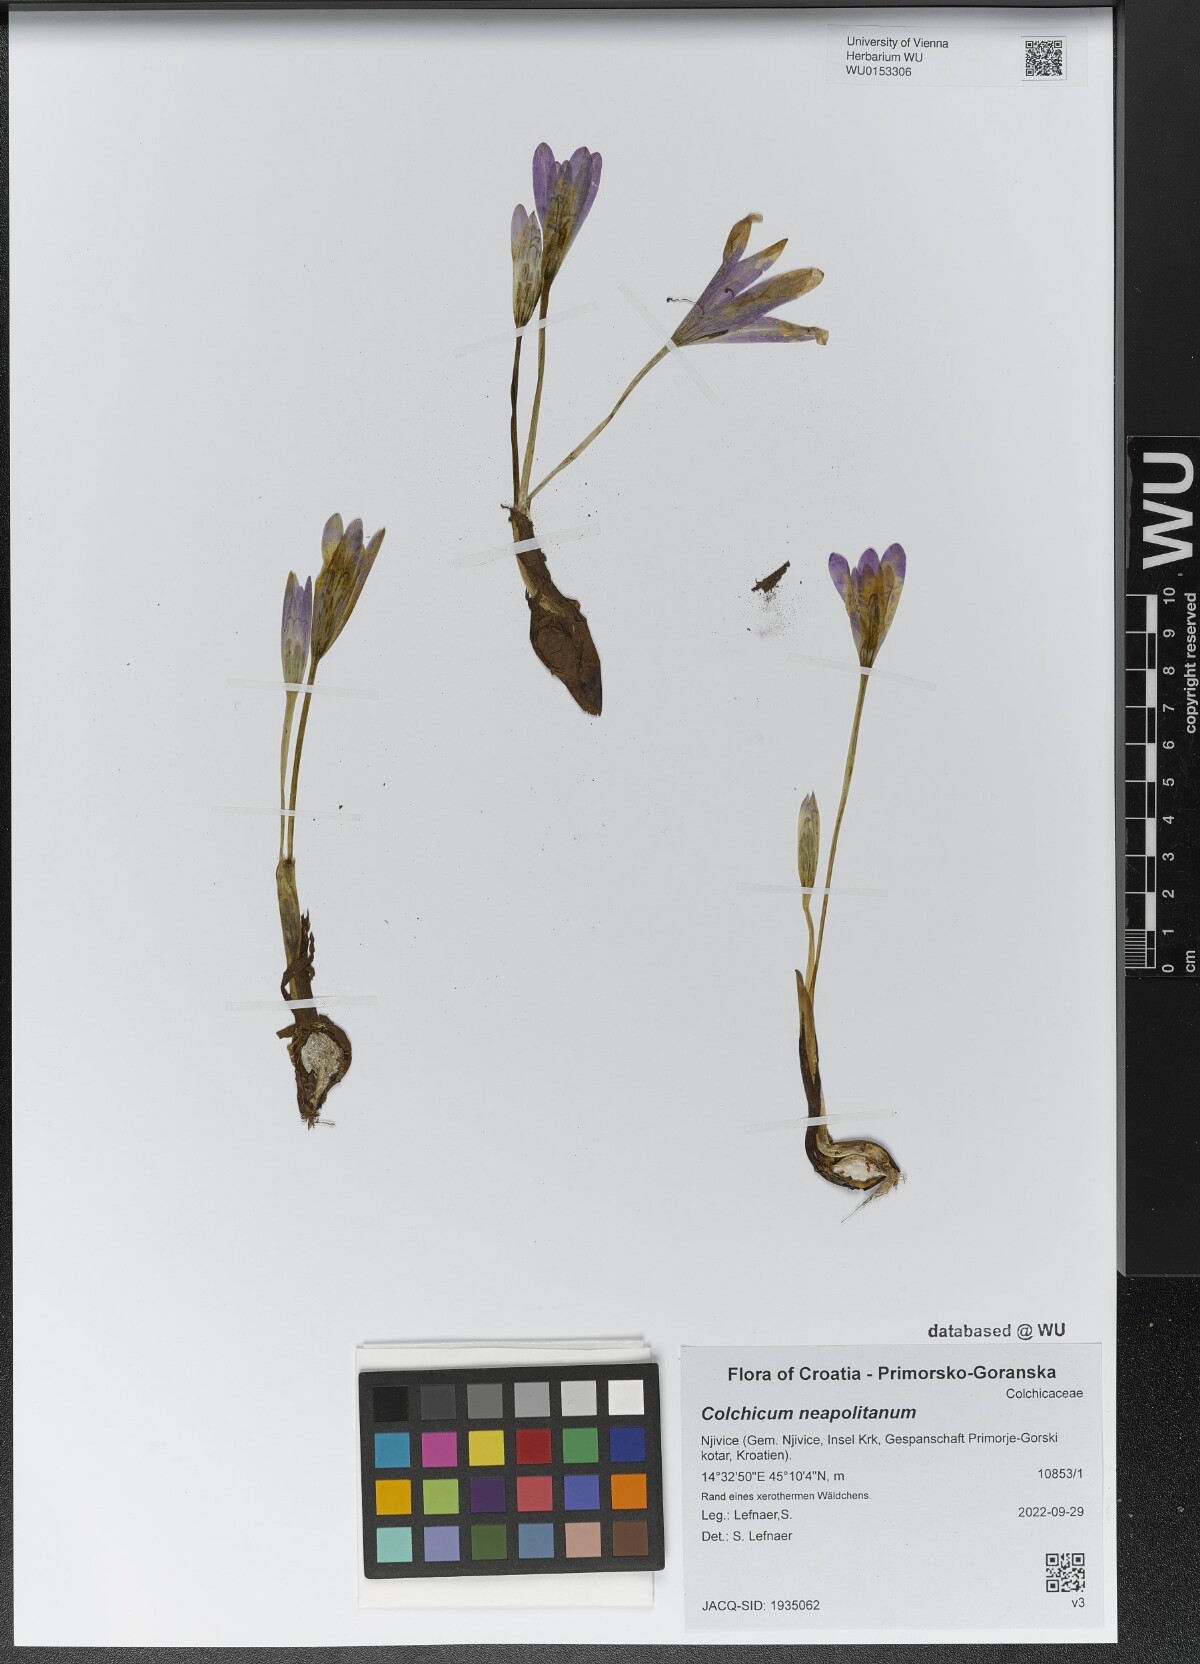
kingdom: Plantae
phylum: Tracheophyta
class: Liliopsida
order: Liliales
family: Colchicaceae
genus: Colchicum
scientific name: Colchicum neapolitanum
